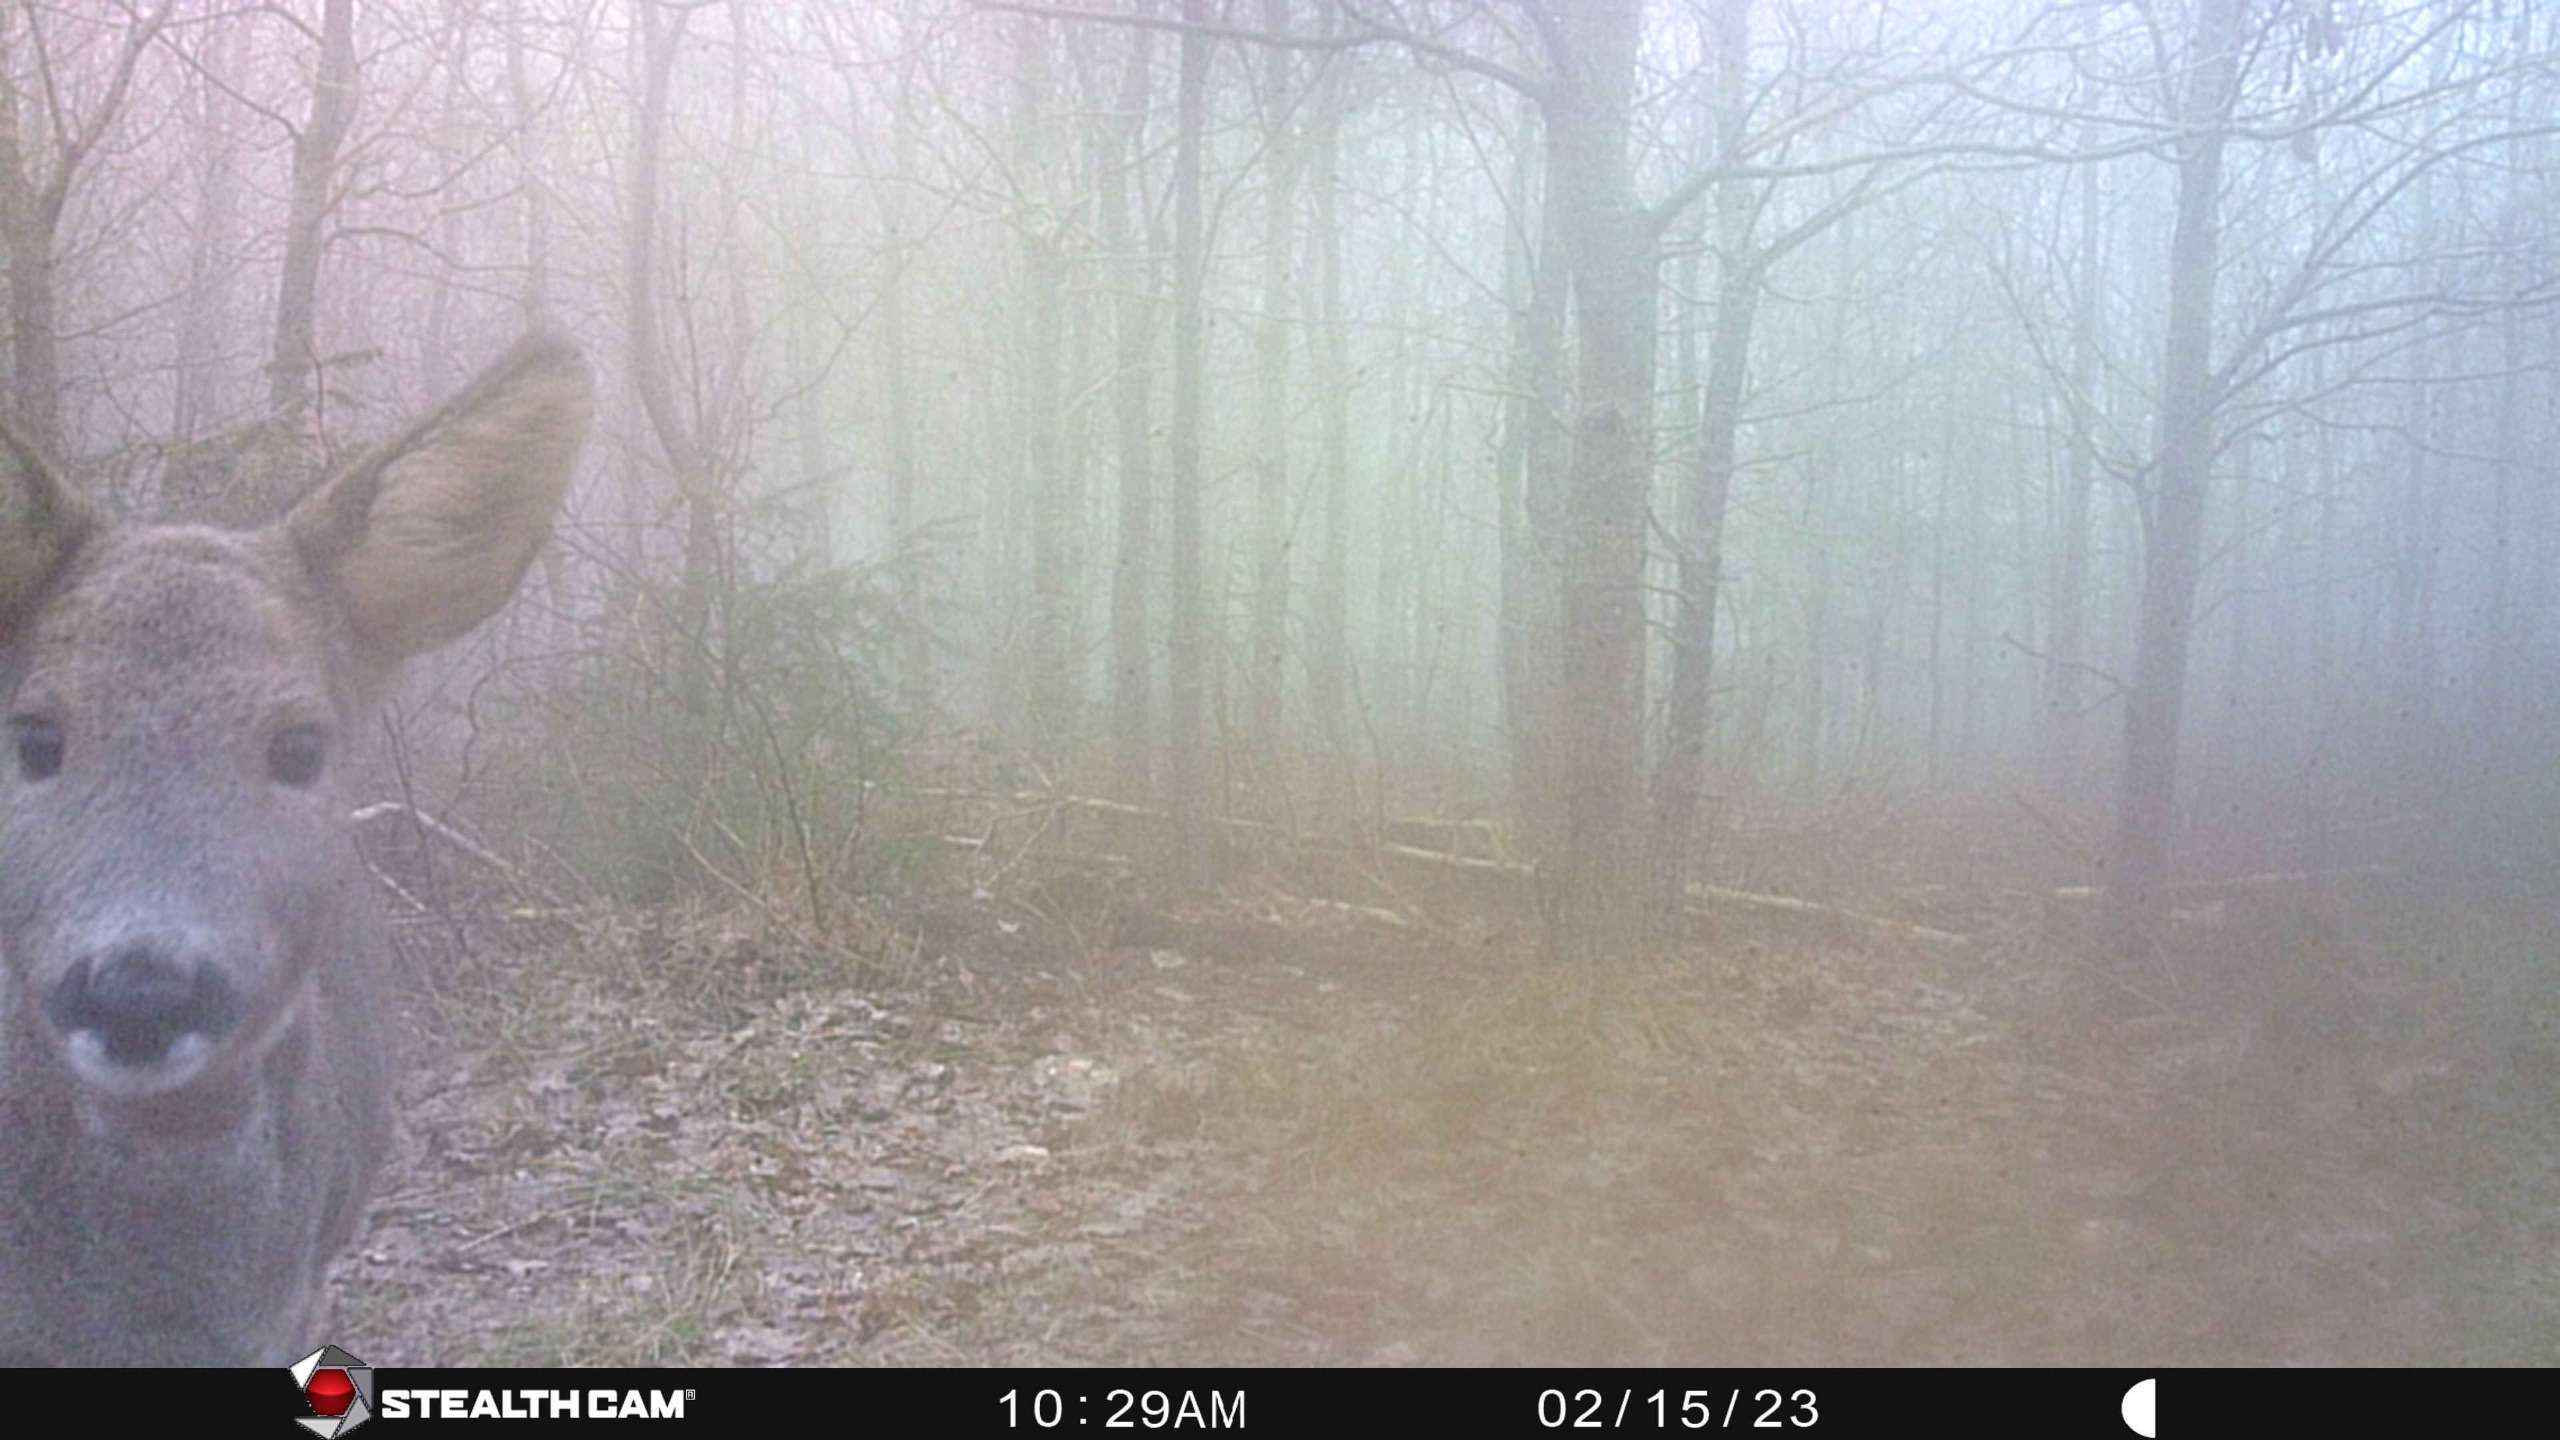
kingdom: Animalia
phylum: Chordata
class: Mammalia
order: Artiodactyla
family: Cervidae
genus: Capreolus
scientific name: Capreolus capreolus
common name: Rådyr
